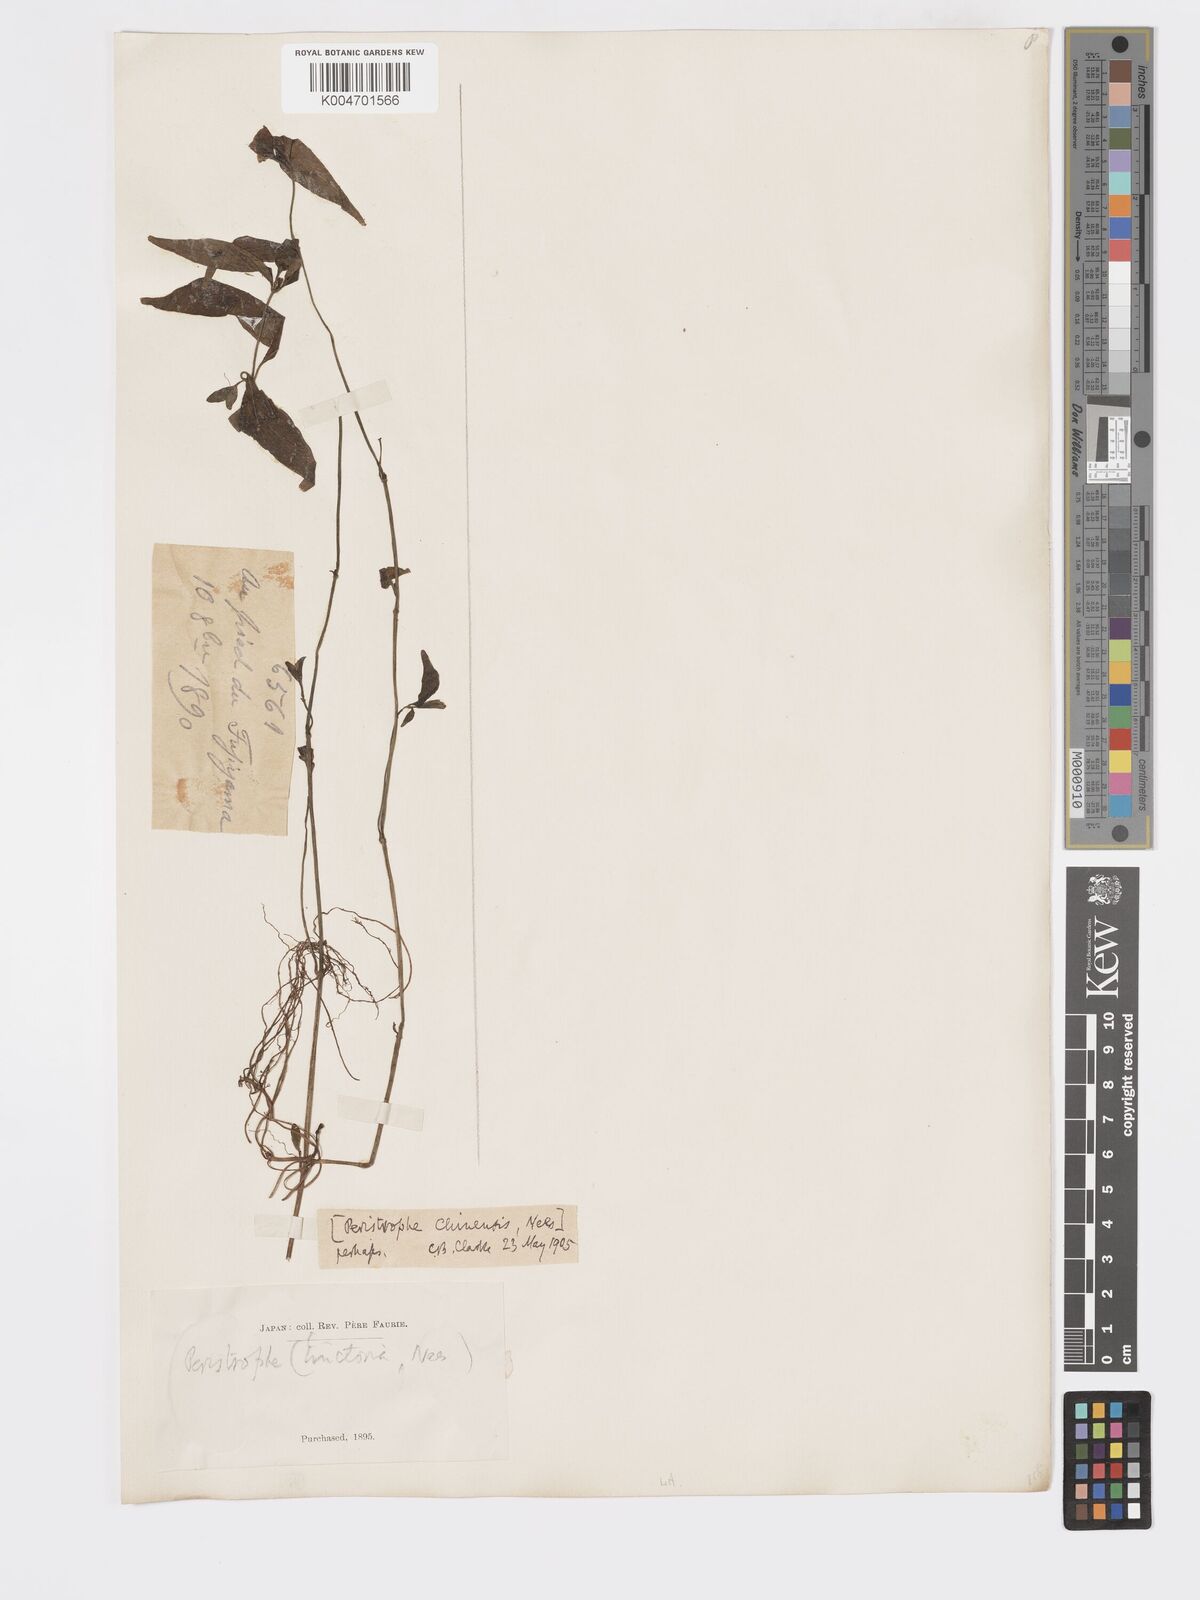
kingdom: Plantae
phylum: Tracheophyta
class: Magnoliopsida
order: Lamiales
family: Acanthaceae
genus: Dicliptera
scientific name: Dicliptera chinensis
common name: Chinese foldwing
